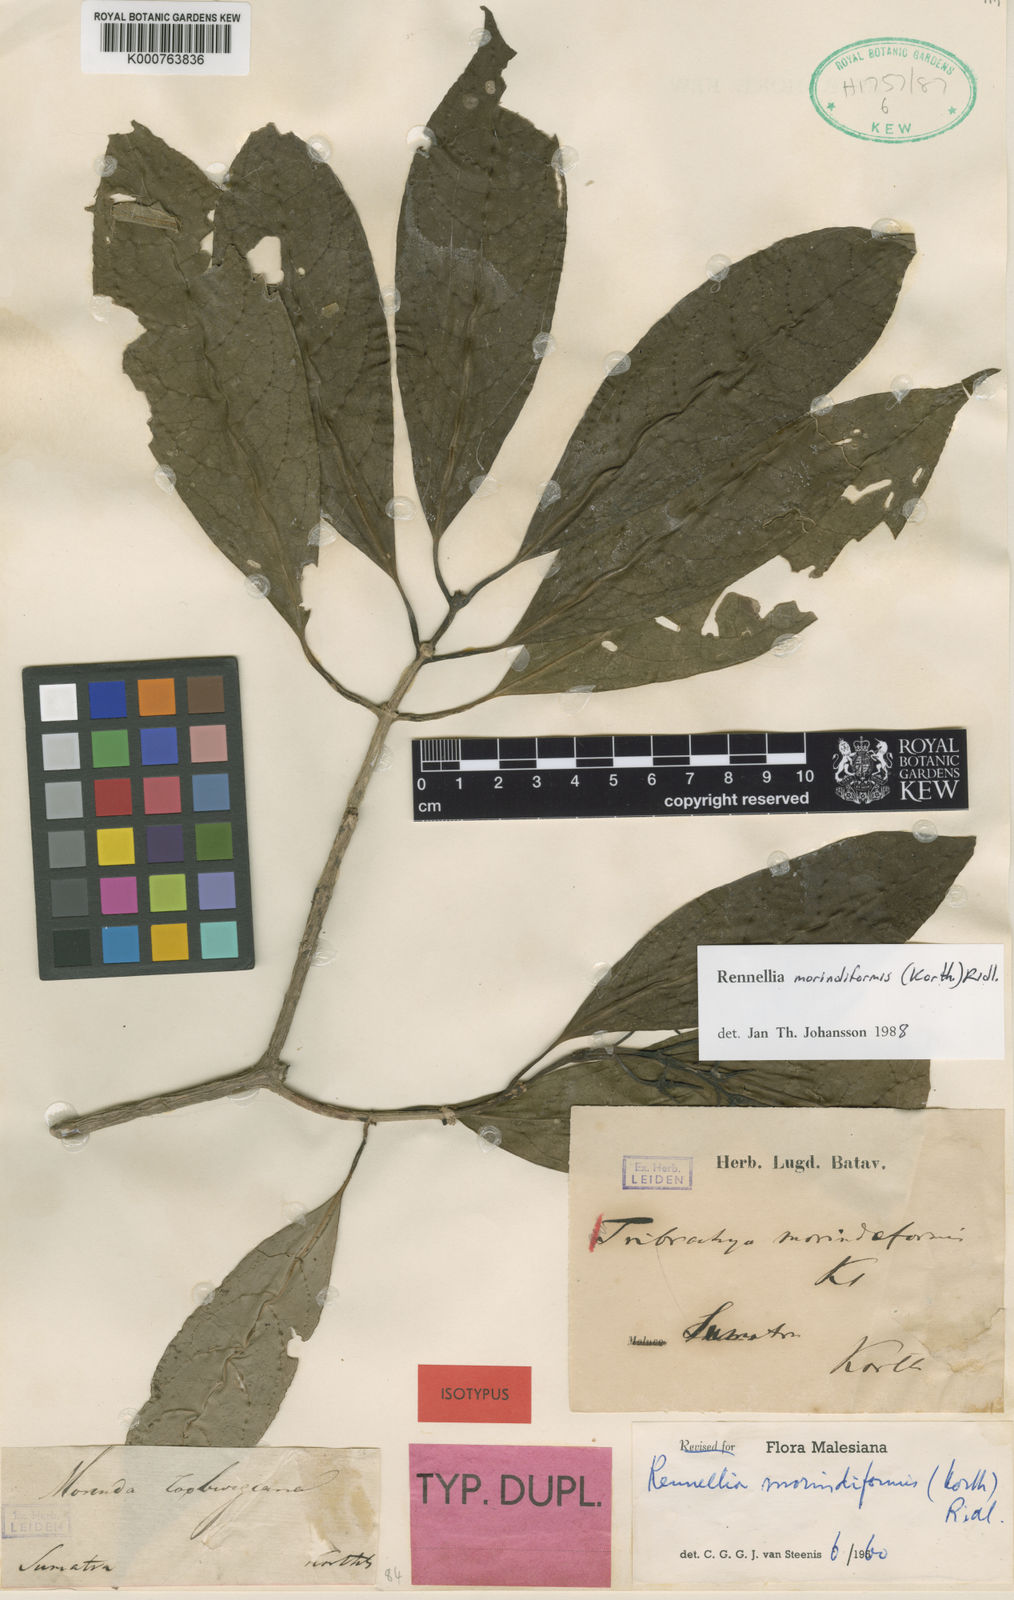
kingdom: Plantae
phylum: Tracheophyta
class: Magnoliopsida
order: Gentianales
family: Rubiaceae
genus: Rennellia
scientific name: Rennellia morindiformis
